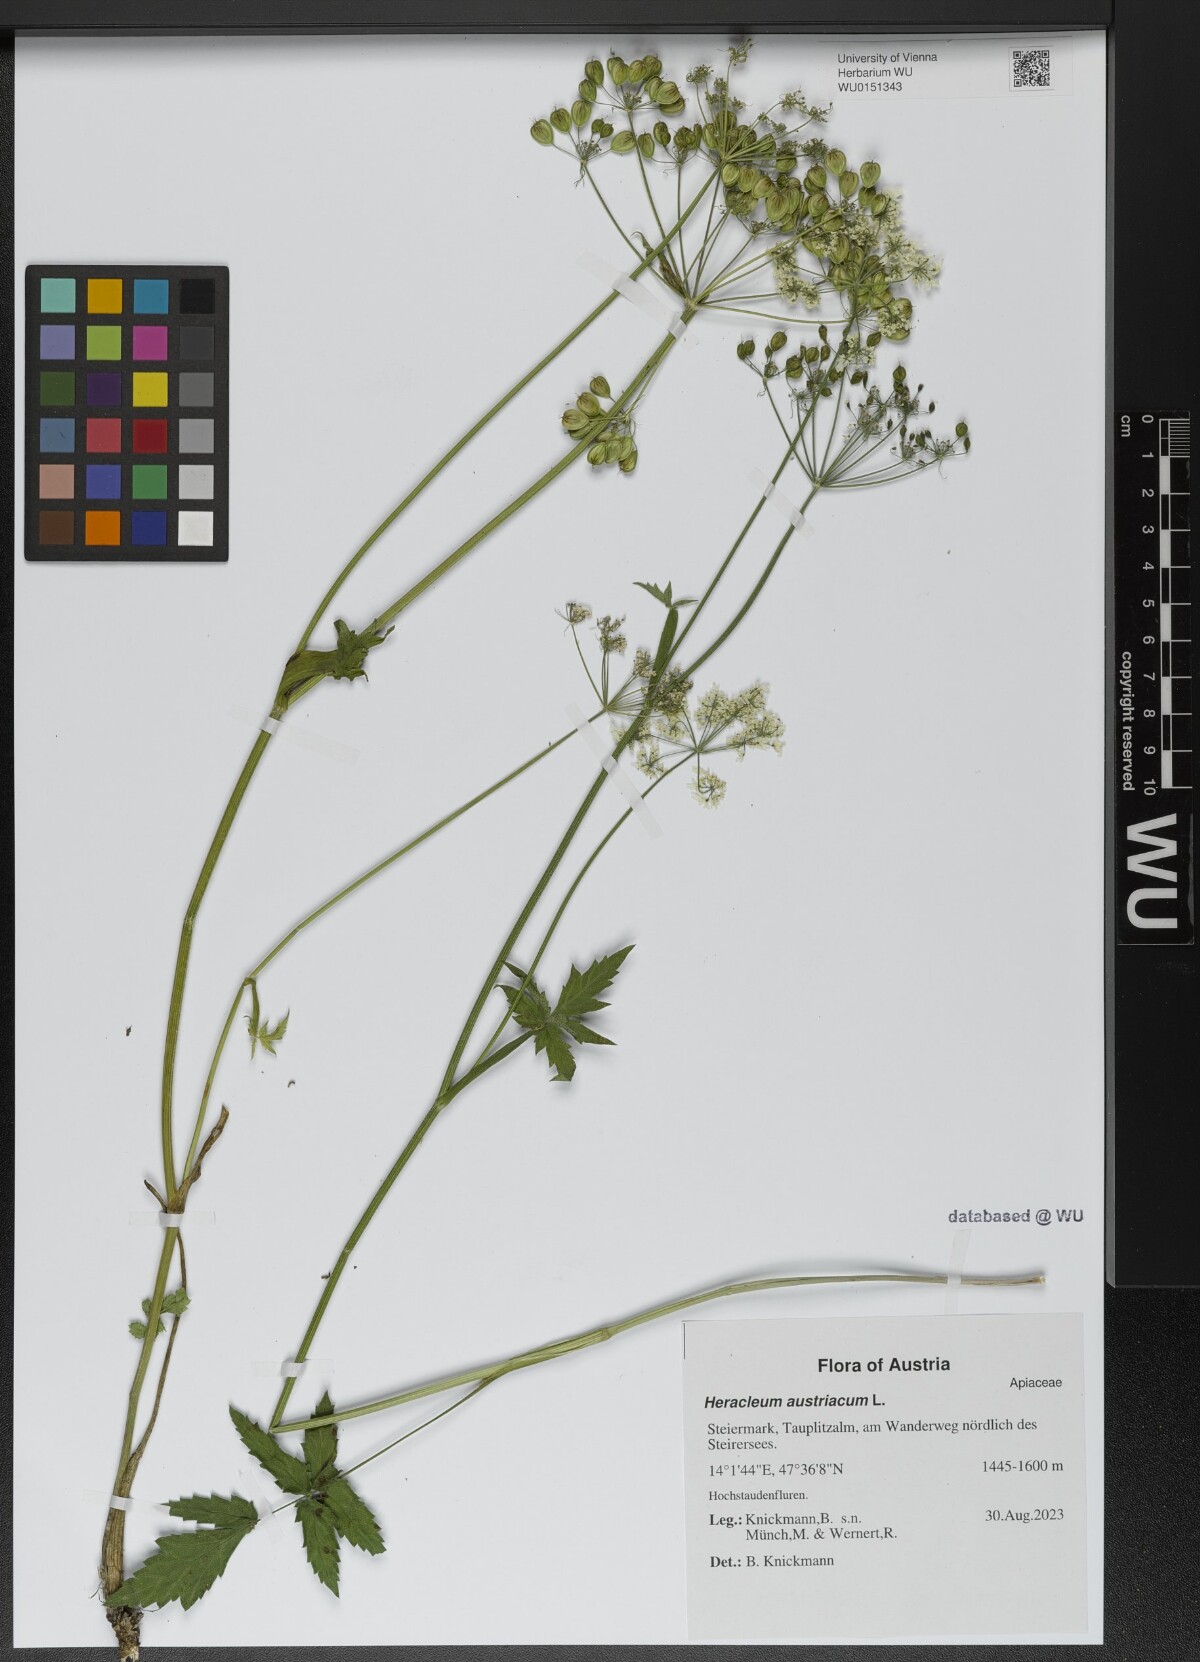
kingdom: Plantae
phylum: Tracheophyta
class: Magnoliopsida
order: Apiales
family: Apiaceae
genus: Heracleum
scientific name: Heracleum austriacum
